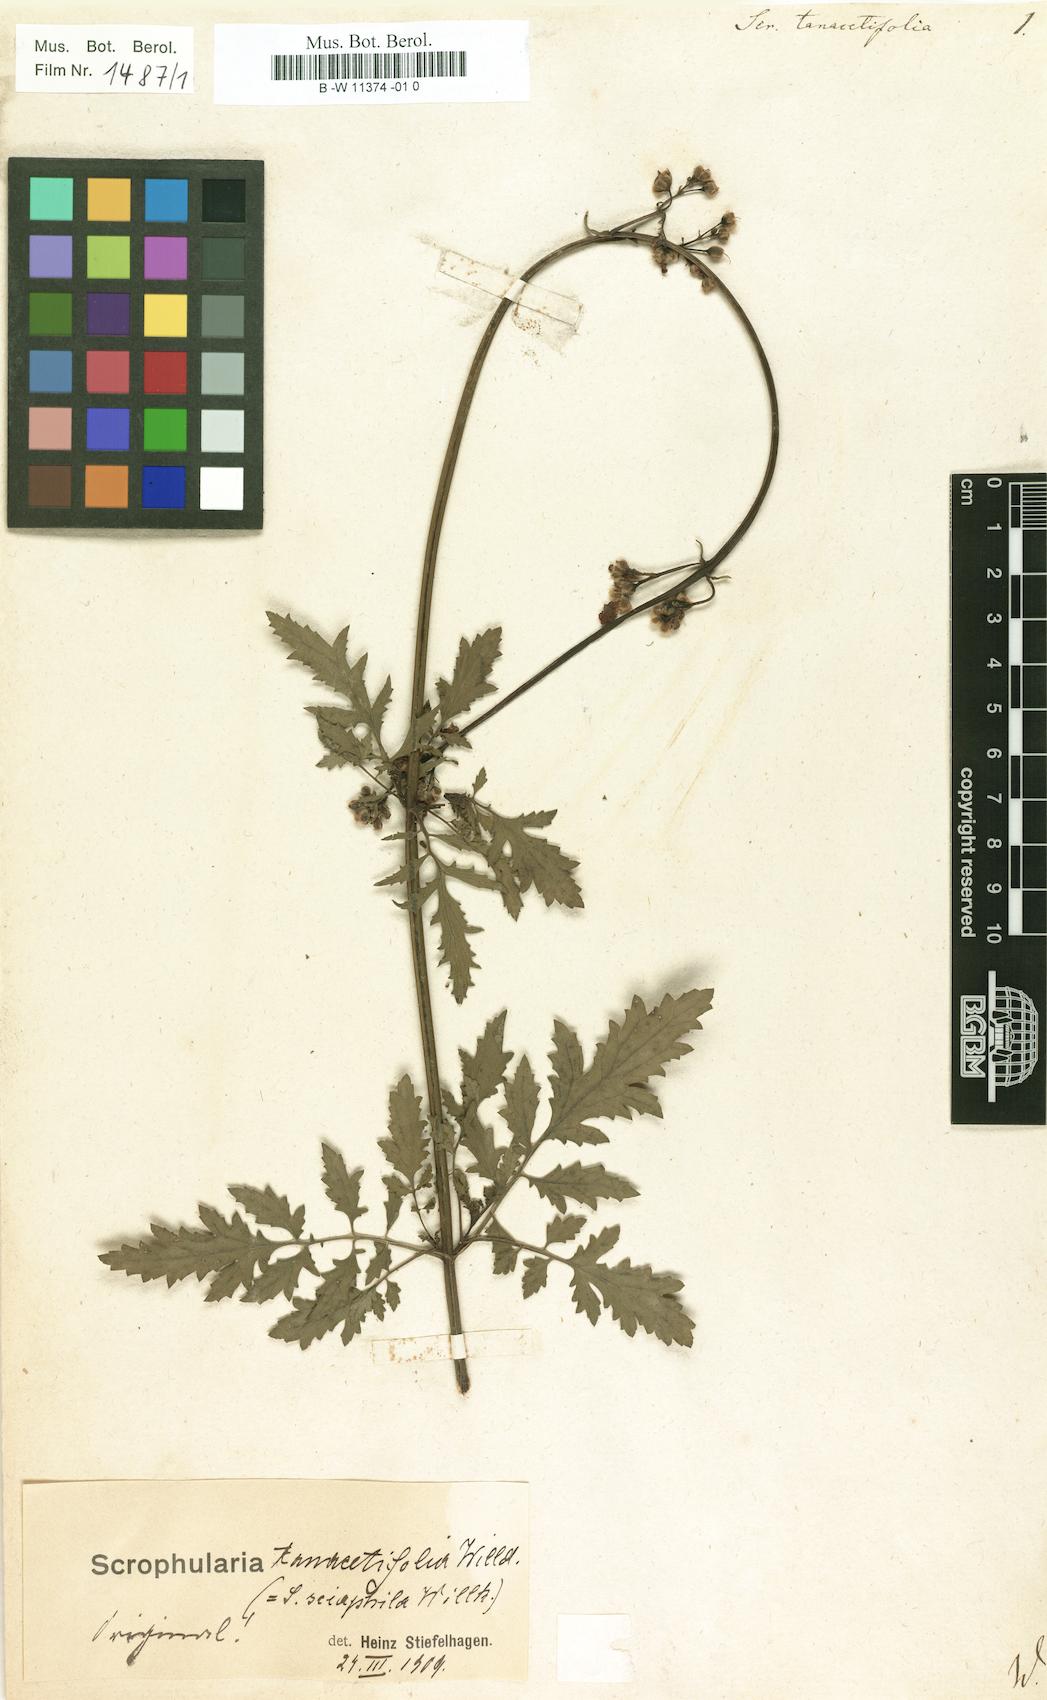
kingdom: Plantae
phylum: Tracheophyta
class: Magnoliopsida
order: Lamiales
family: Scrophulariaceae
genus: Scrophularia
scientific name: Scrophularia tanacetifolia
